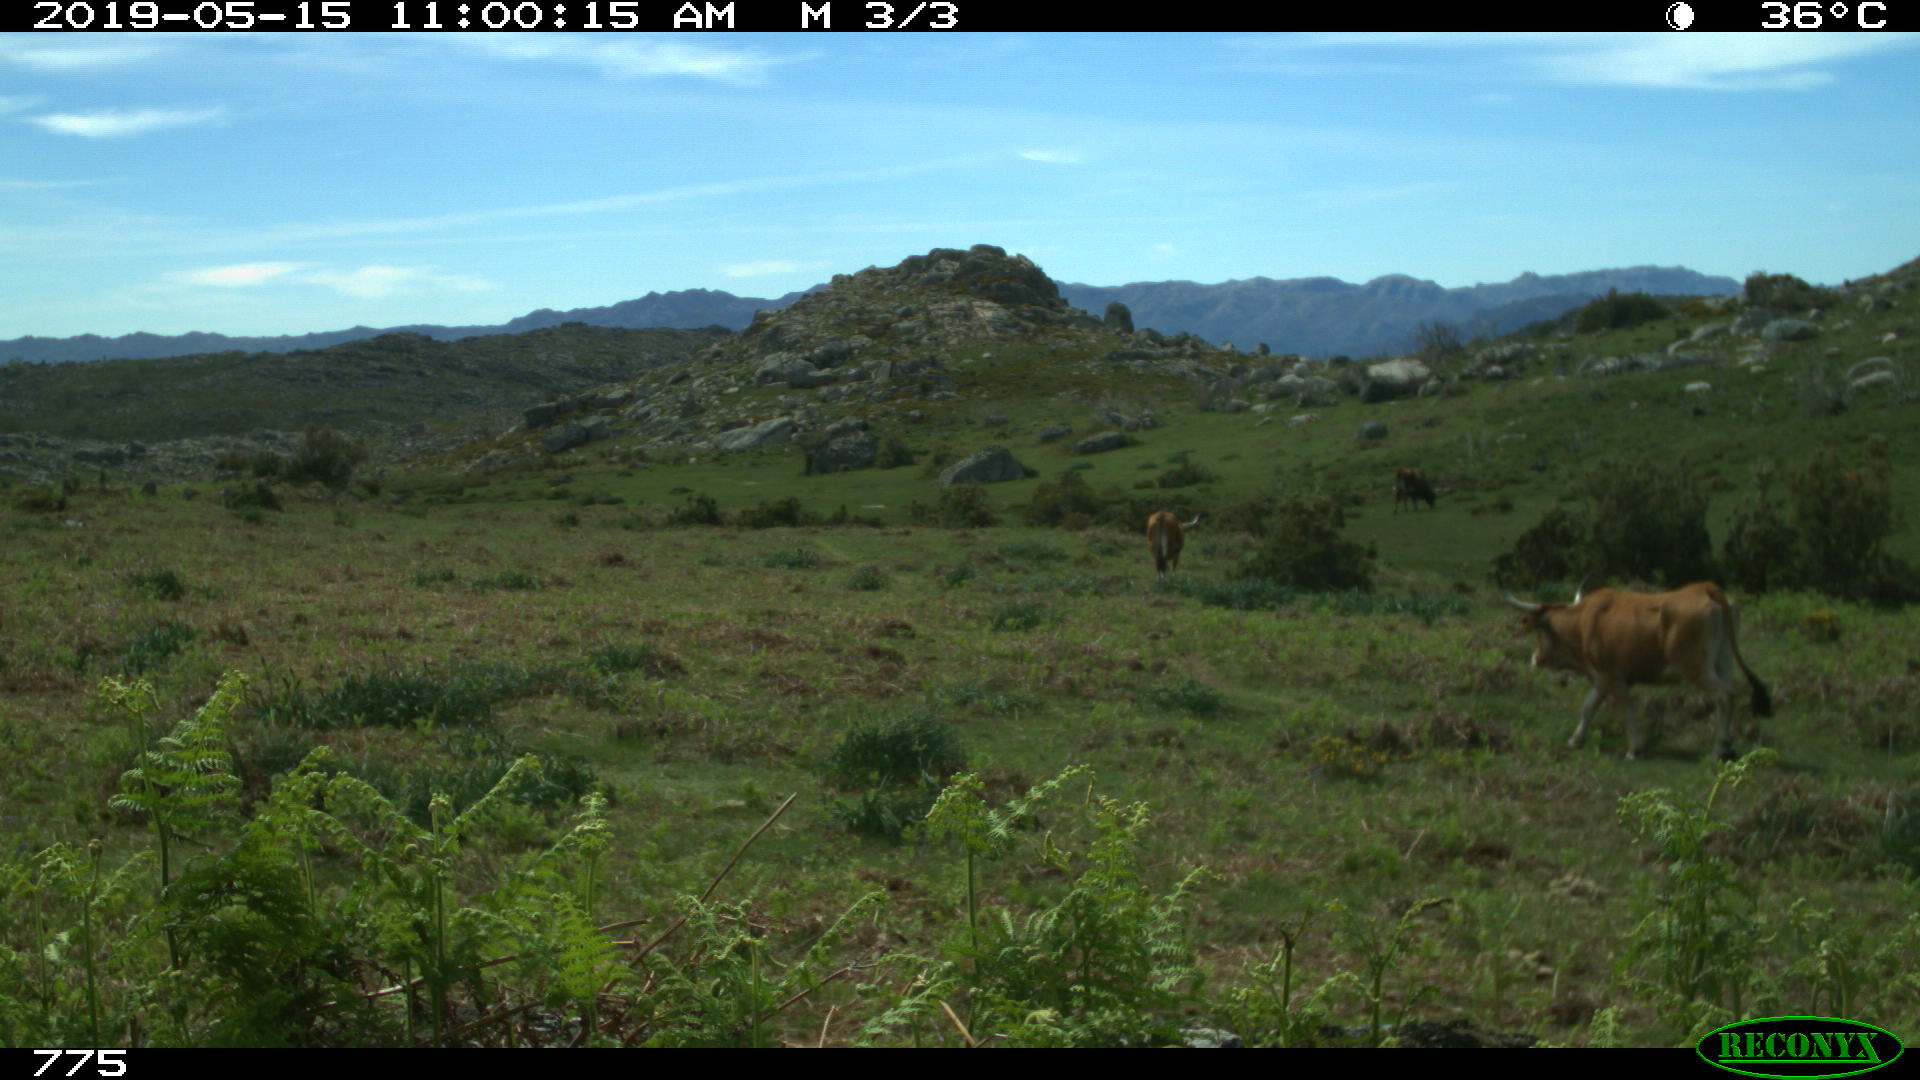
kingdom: Animalia
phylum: Chordata
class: Mammalia
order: Artiodactyla
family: Bovidae
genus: Bos
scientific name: Bos taurus
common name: Domesticated cattle
